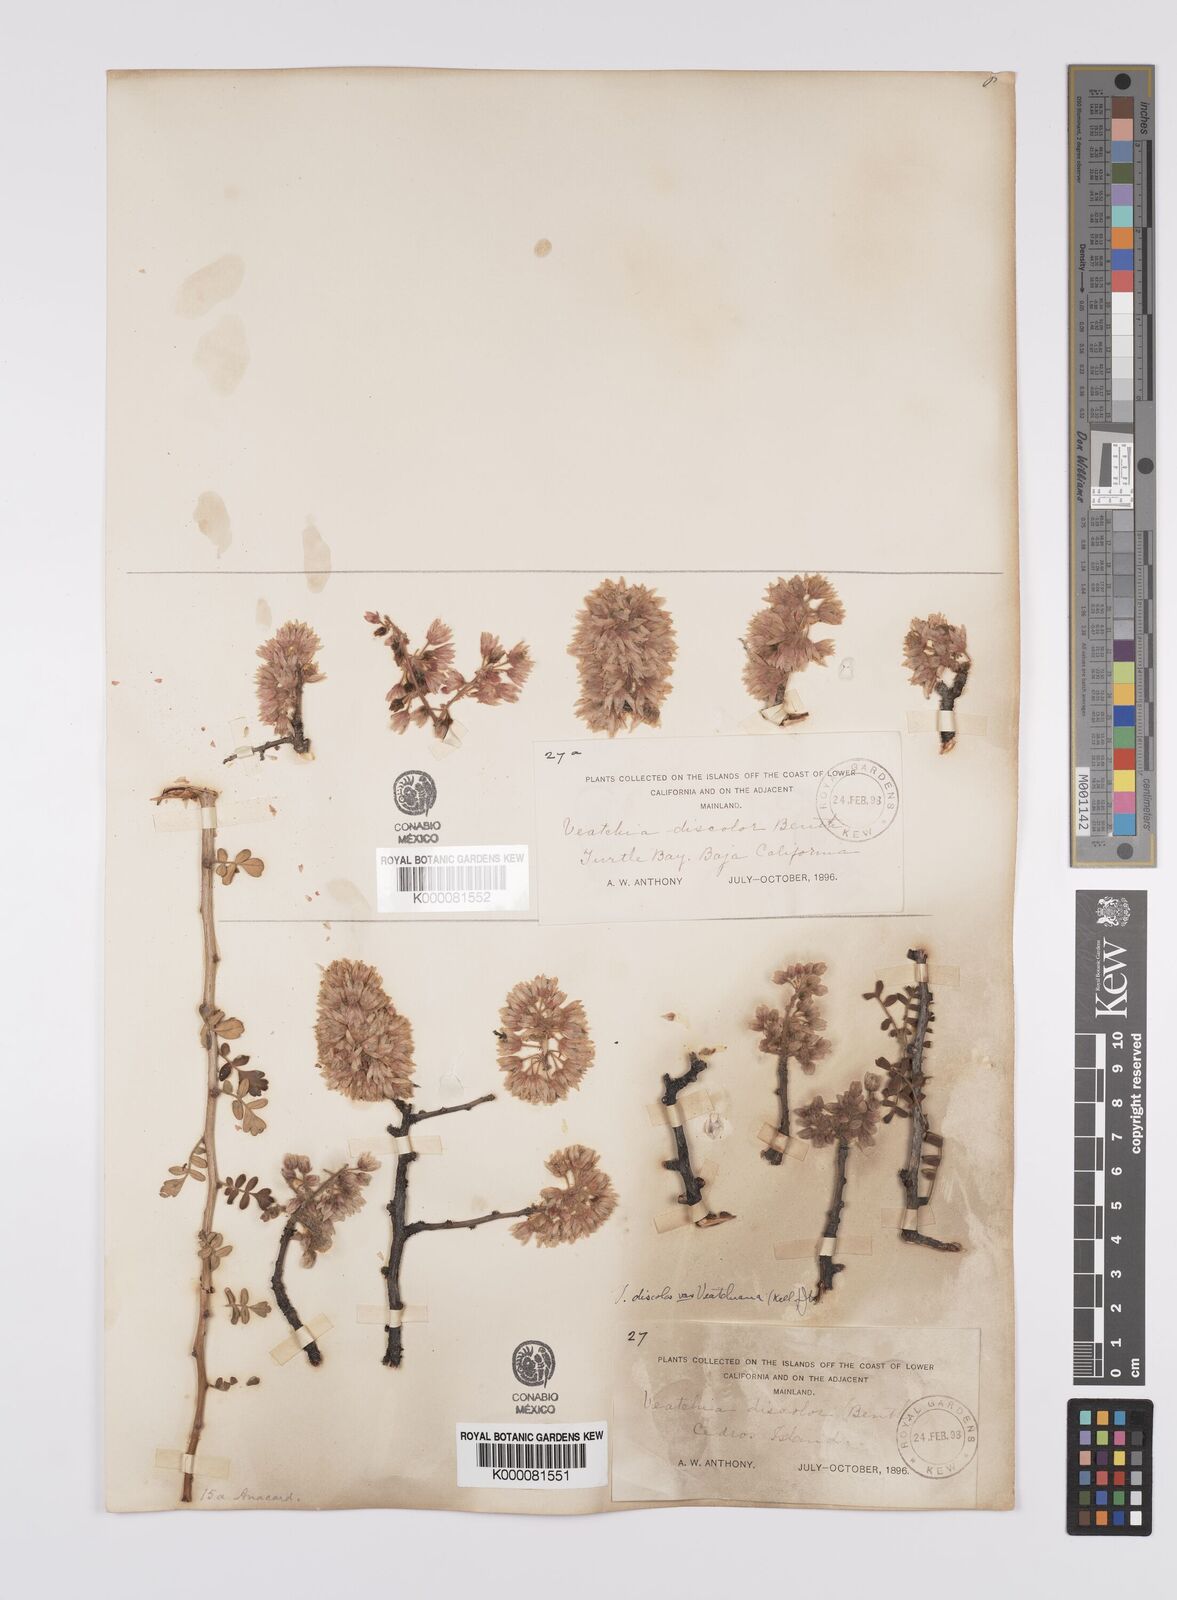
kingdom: Plantae
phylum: Tracheophyta
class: Magnoliopsida
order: Sapindales
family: Anacardiaceae
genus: Pachycormus
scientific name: Pachycormus
